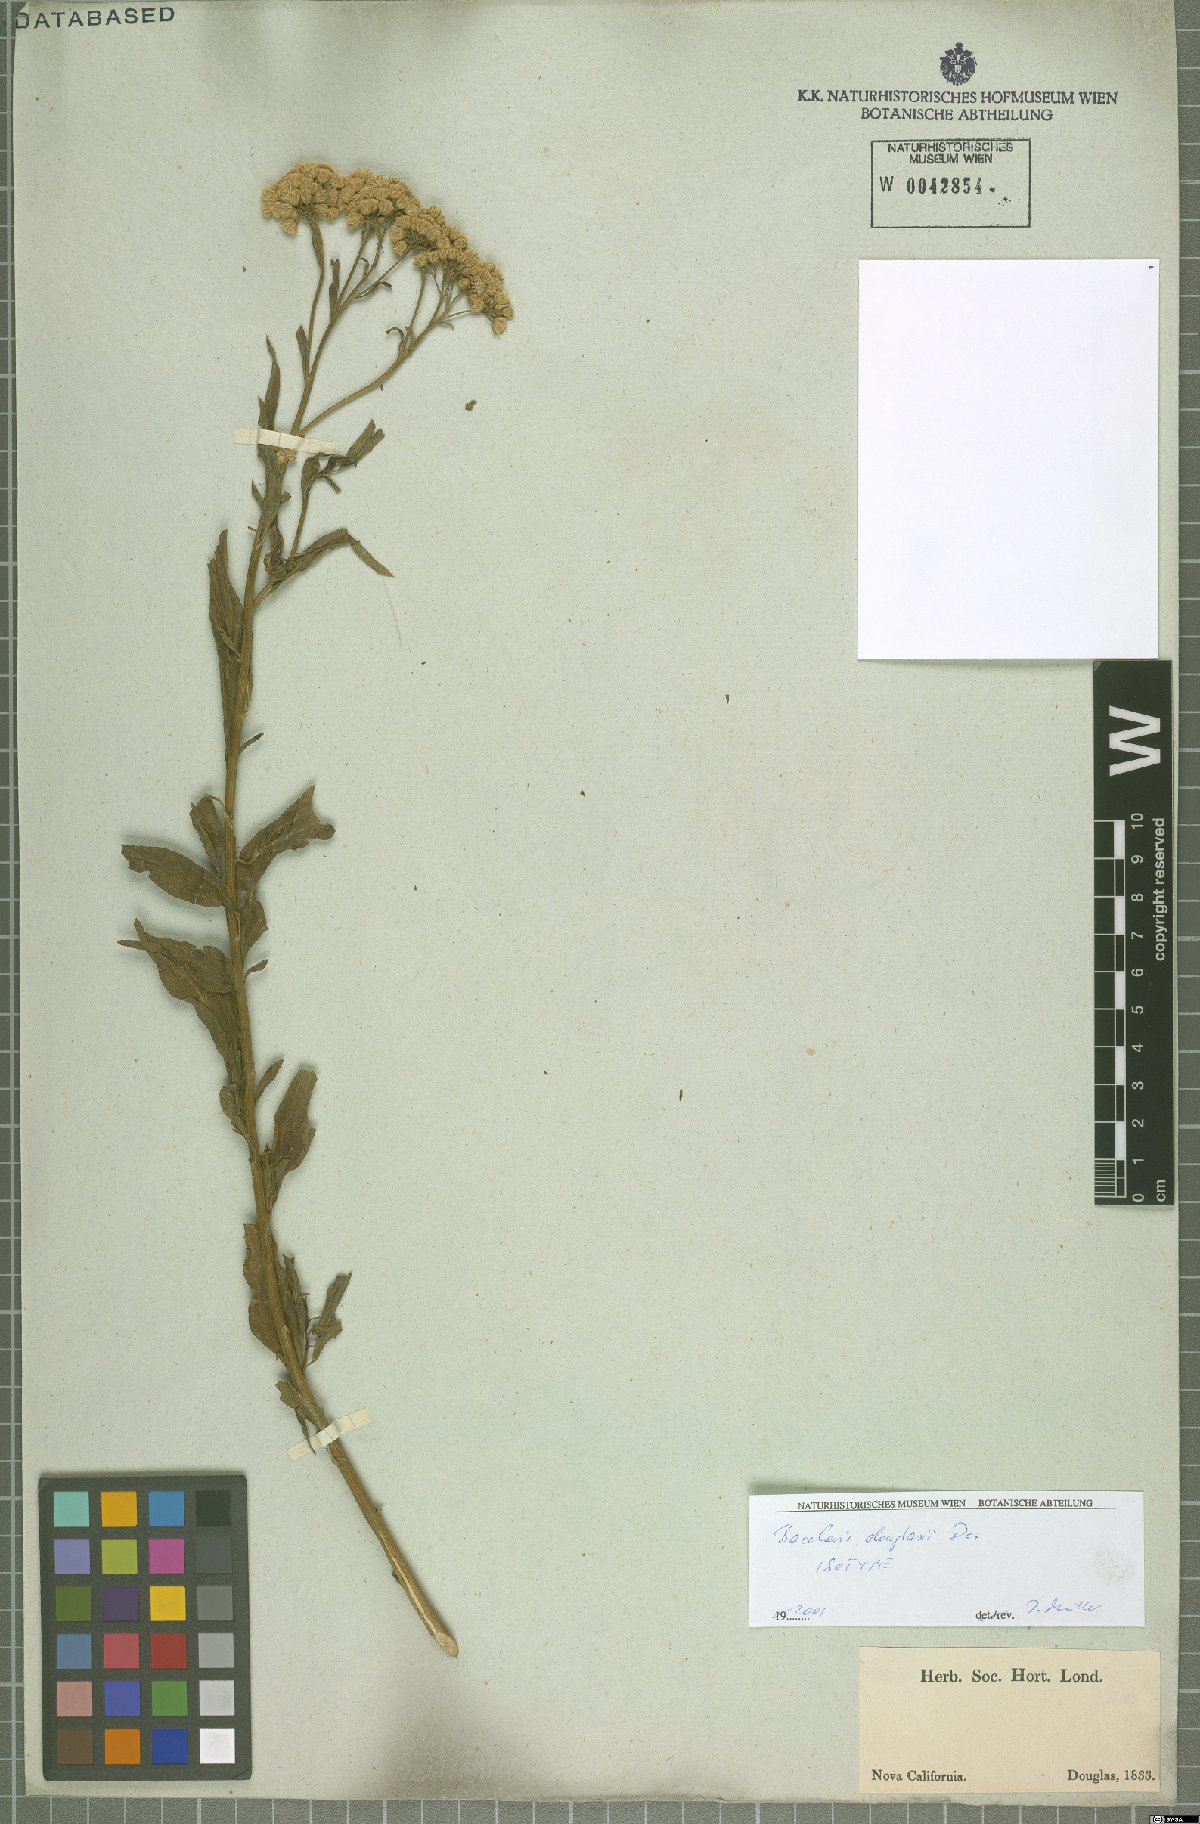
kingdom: Plantae
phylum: Tracheophyta
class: Magnoliopsida
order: Asterales
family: Asteraceae
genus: Baccharis
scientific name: Baccharis douglasii
